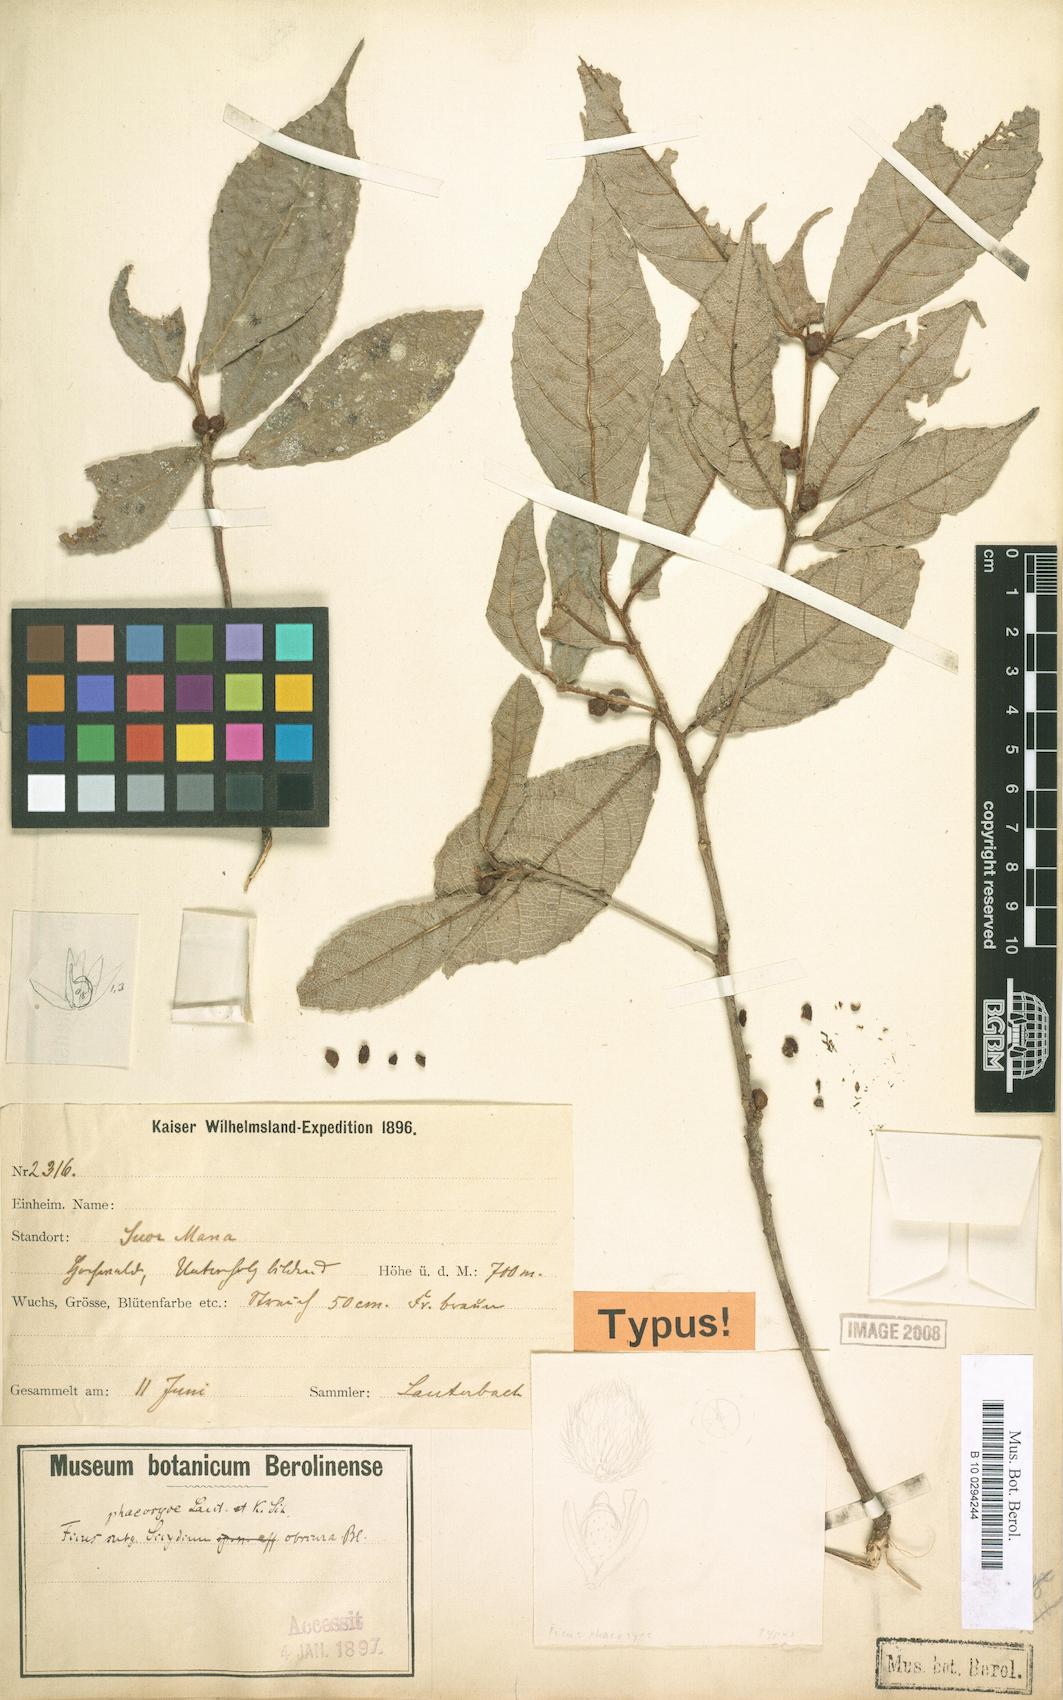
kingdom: Plantae
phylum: Tracheophyta
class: Magnoliopsida
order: Rosales
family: Moraceae
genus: Ficus
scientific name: Ficus phaeosyce
